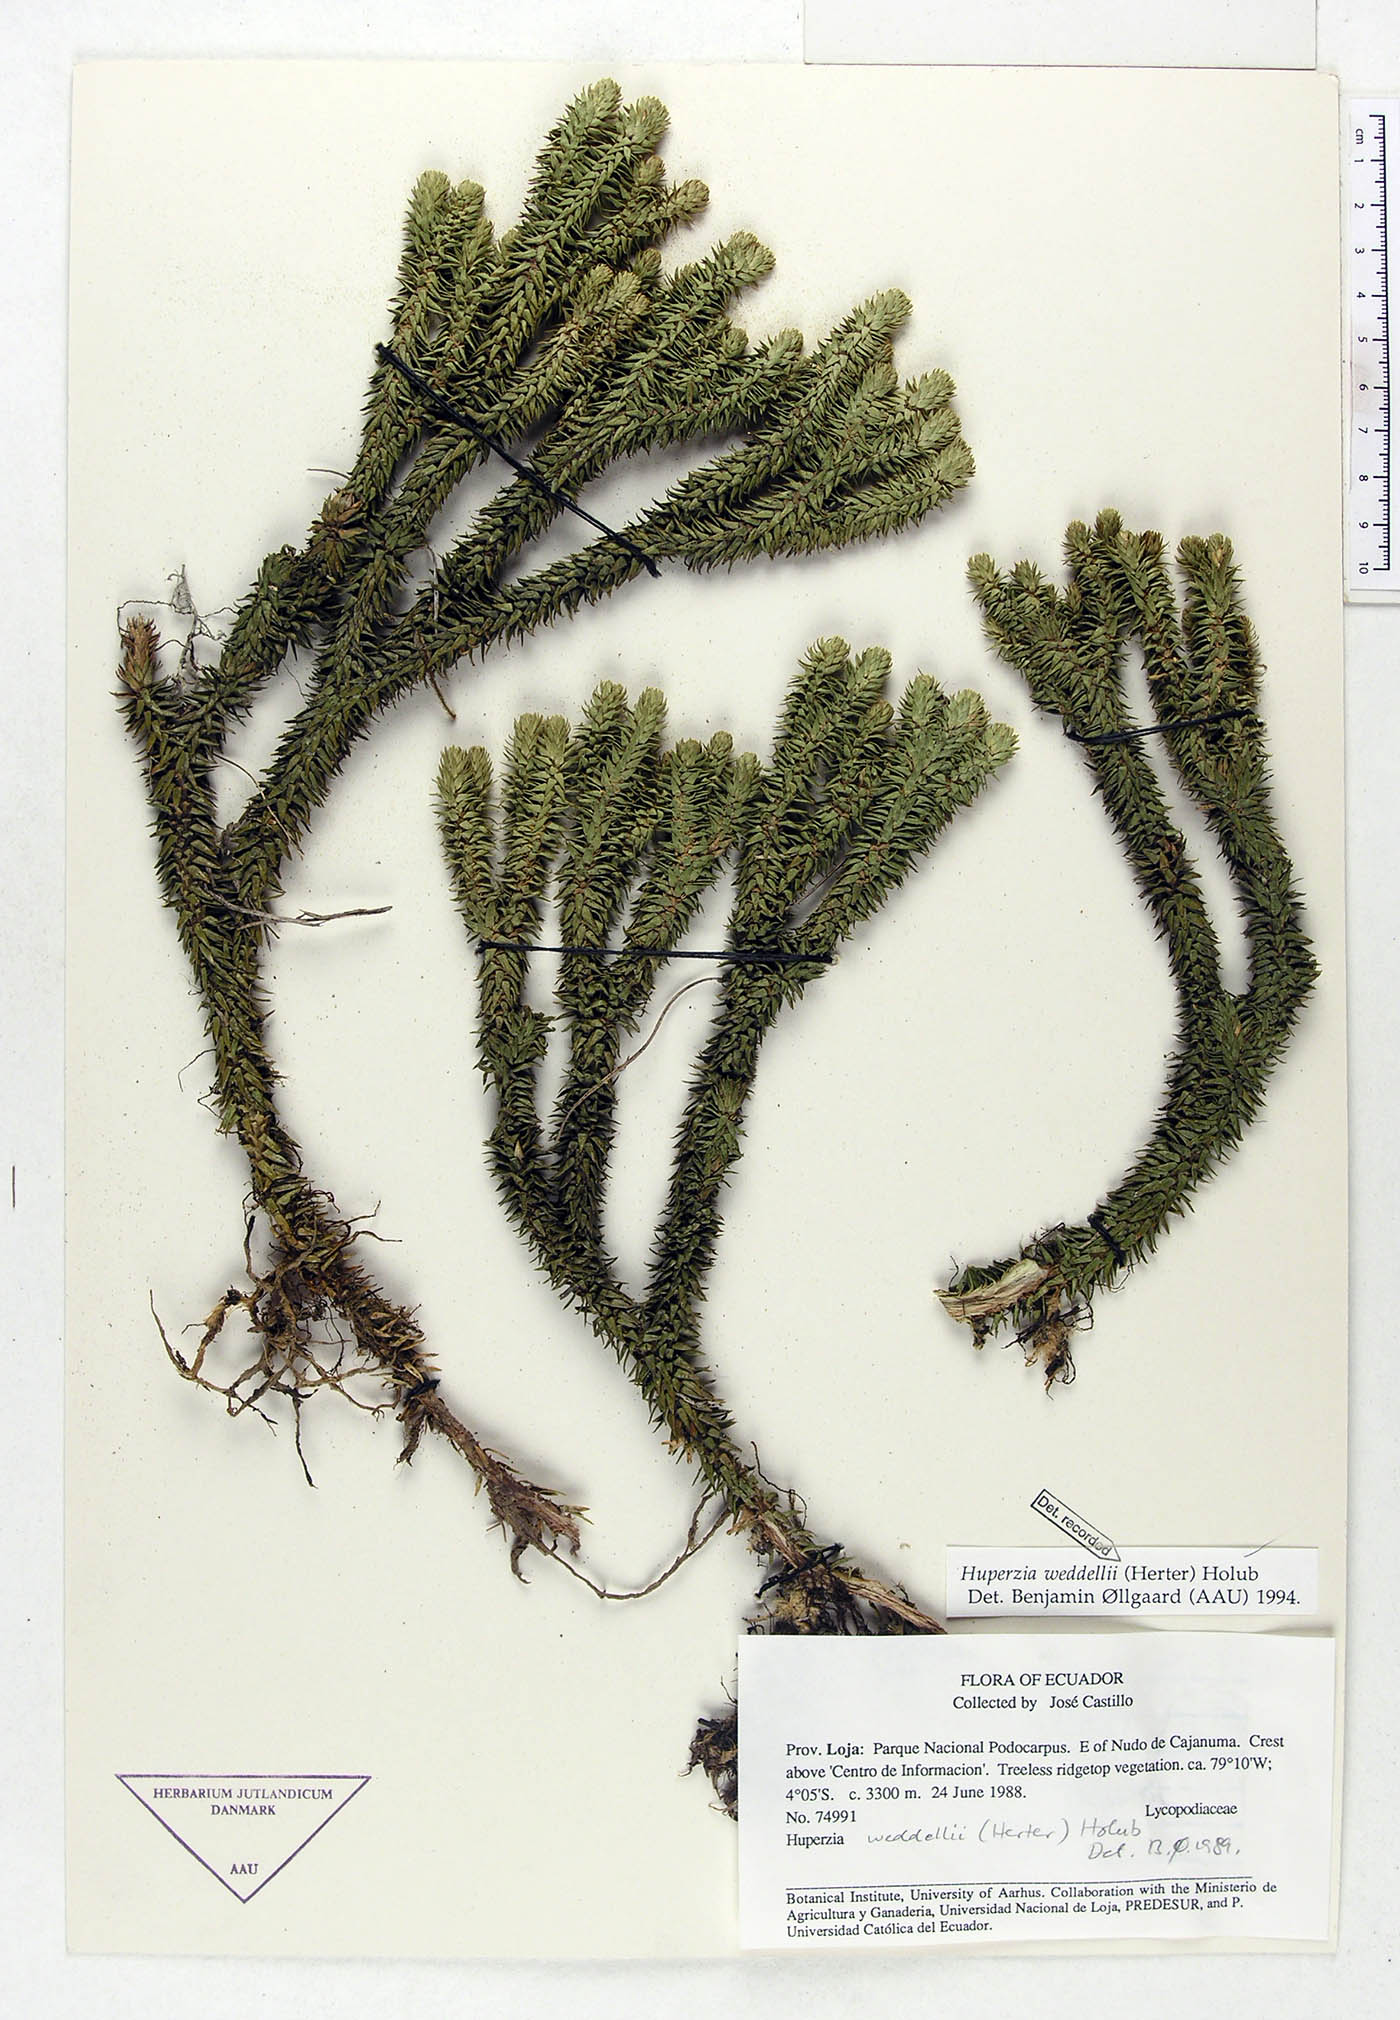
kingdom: Plantae
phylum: Tracheophyta
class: Lycopodiopsida
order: Lycopodiales
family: Lycopodiaceae
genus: Phlegmariurus
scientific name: Phlegmariurus weddellii
